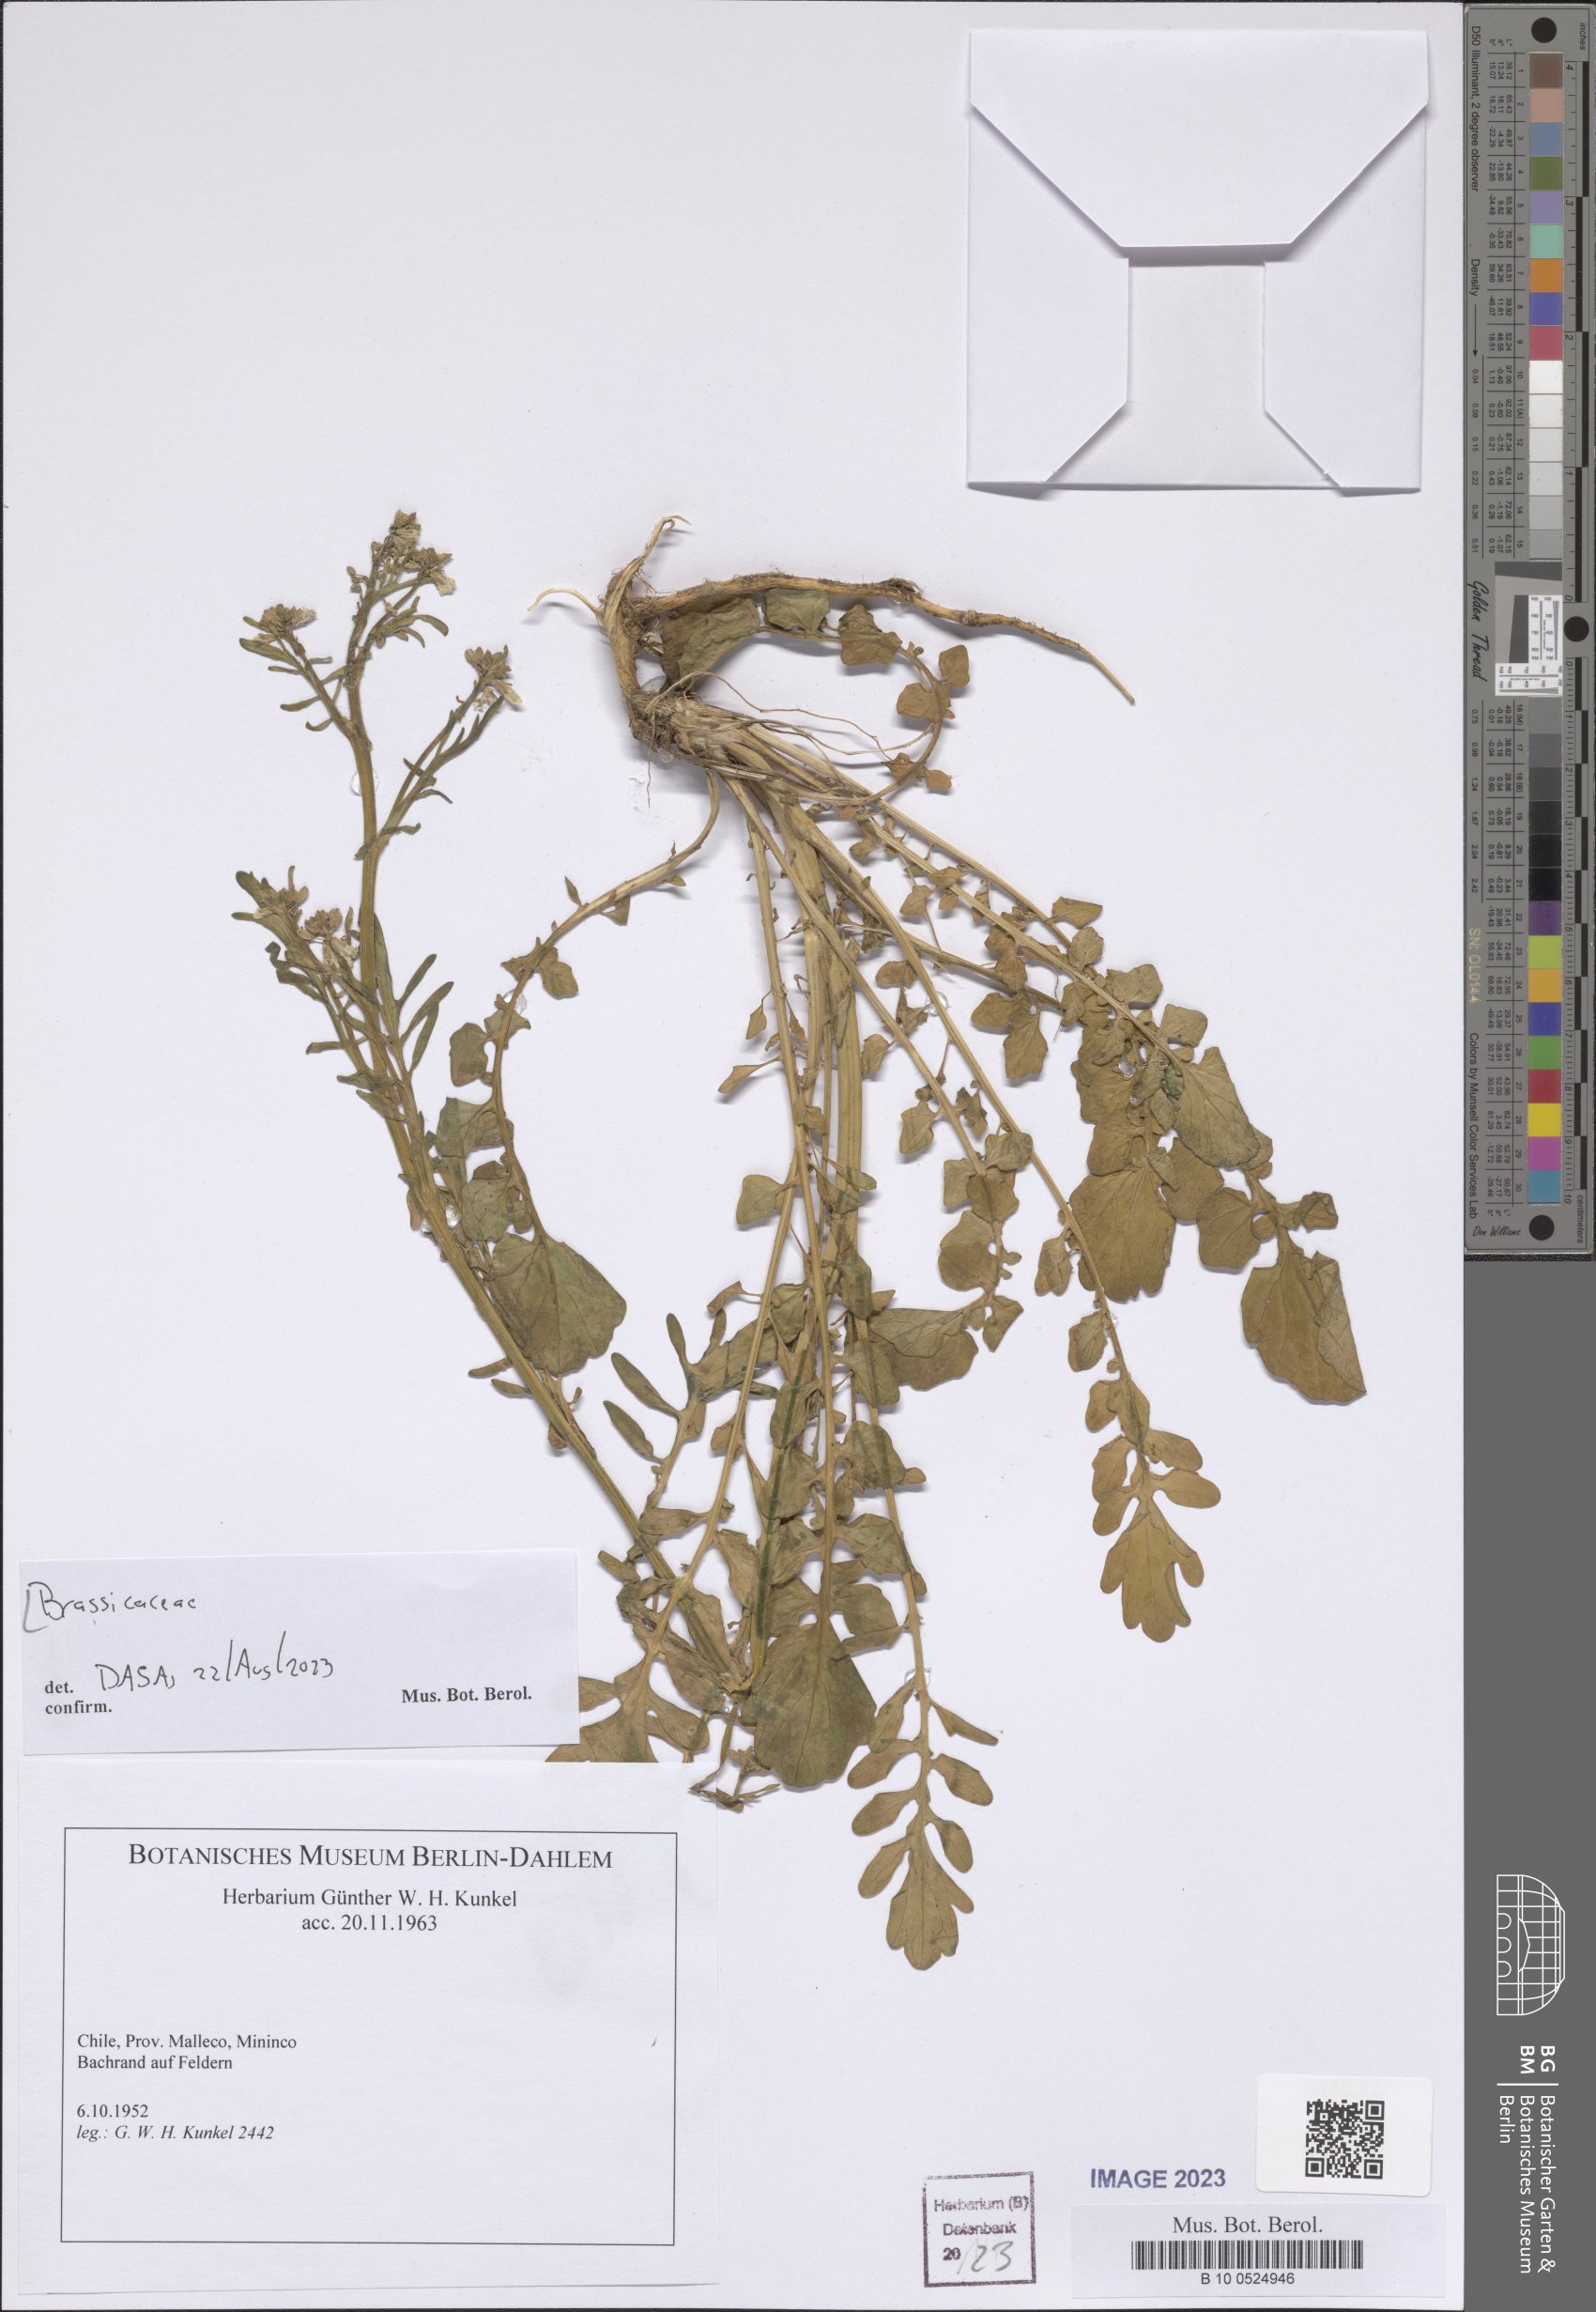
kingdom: Plantae
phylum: Tracheophyta
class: Magnoliopsida
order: Brassicales
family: Brassicaceae
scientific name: Brassicaceae
